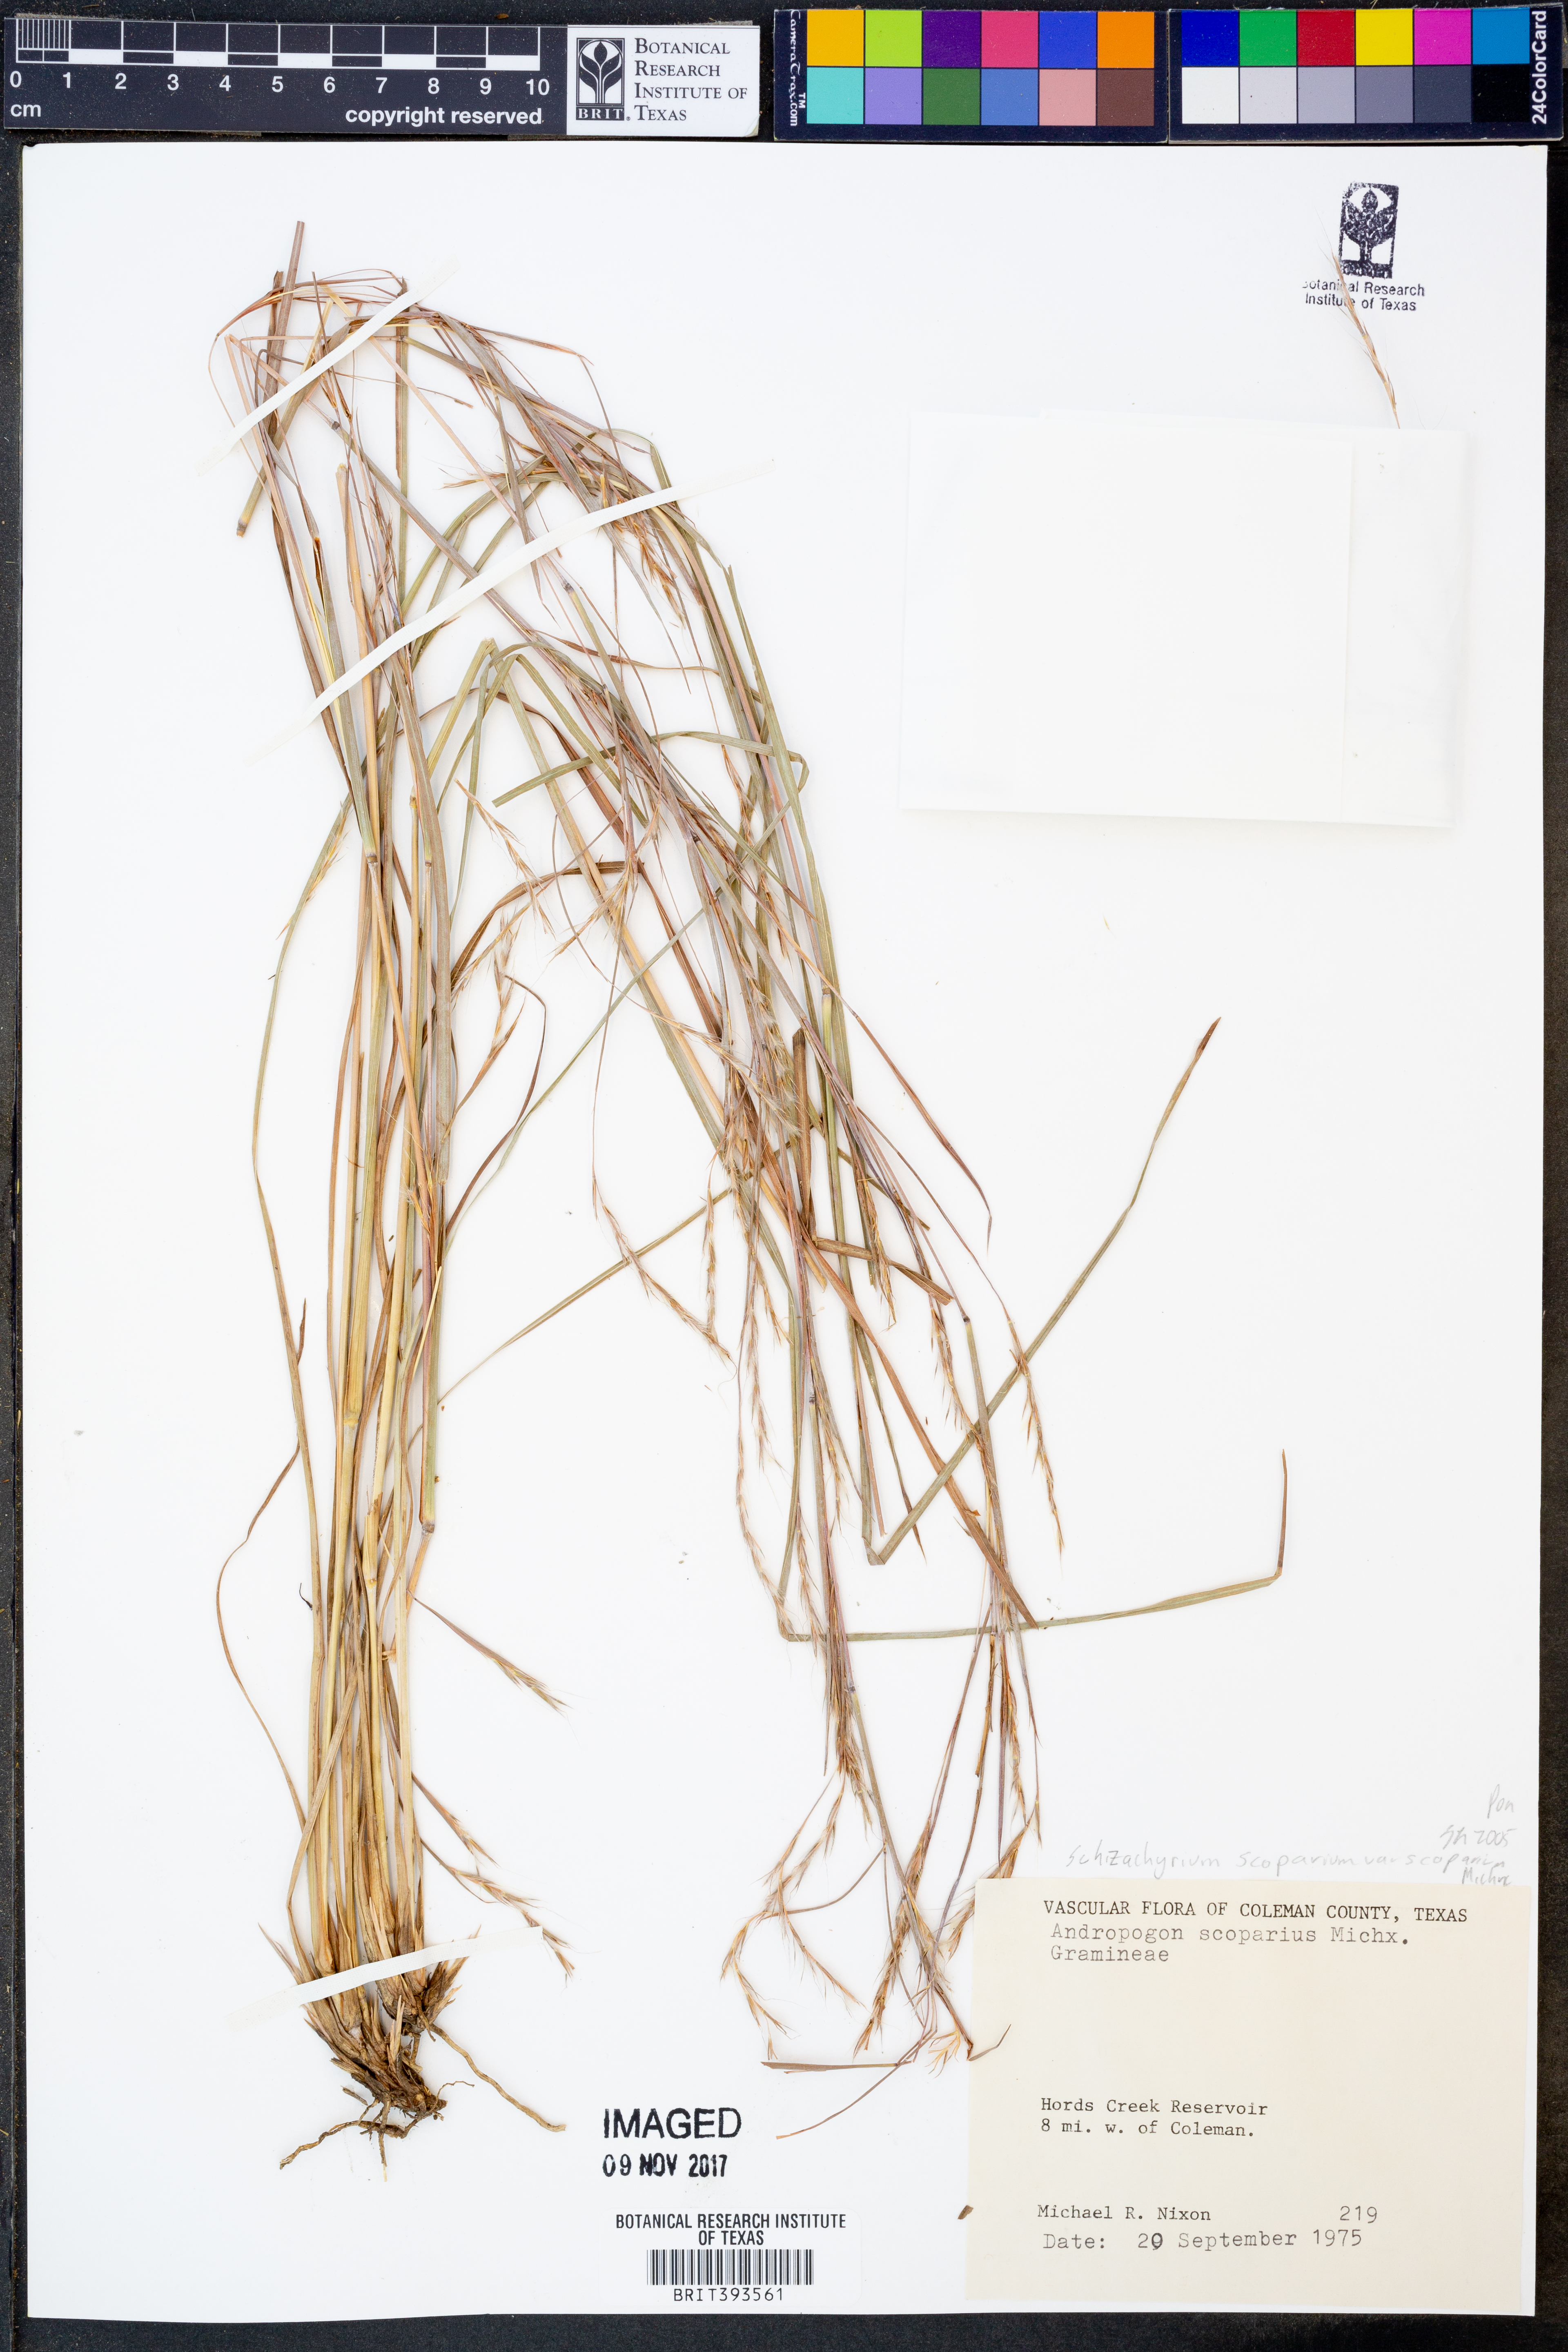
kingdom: Plantae
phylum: Tracheophyta
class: Liliopsida
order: Poales
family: Poaceae
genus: Schizachyrium
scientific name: Schizachyrium scoparium
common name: Little bluestem
